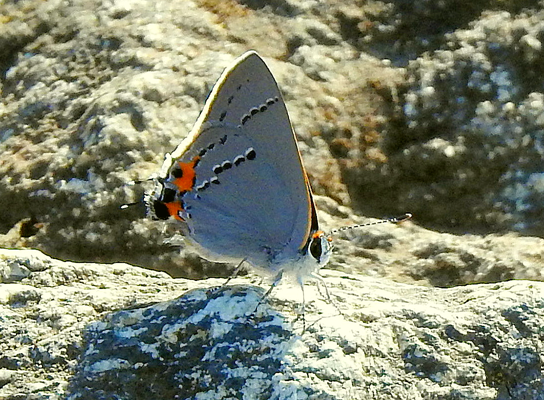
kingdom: Animalia
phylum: Arthropoda
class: Insecta
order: Lepidoptera
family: Lycaenidae
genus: Strymon
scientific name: Strymon melinus
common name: Gray Hairstreak
